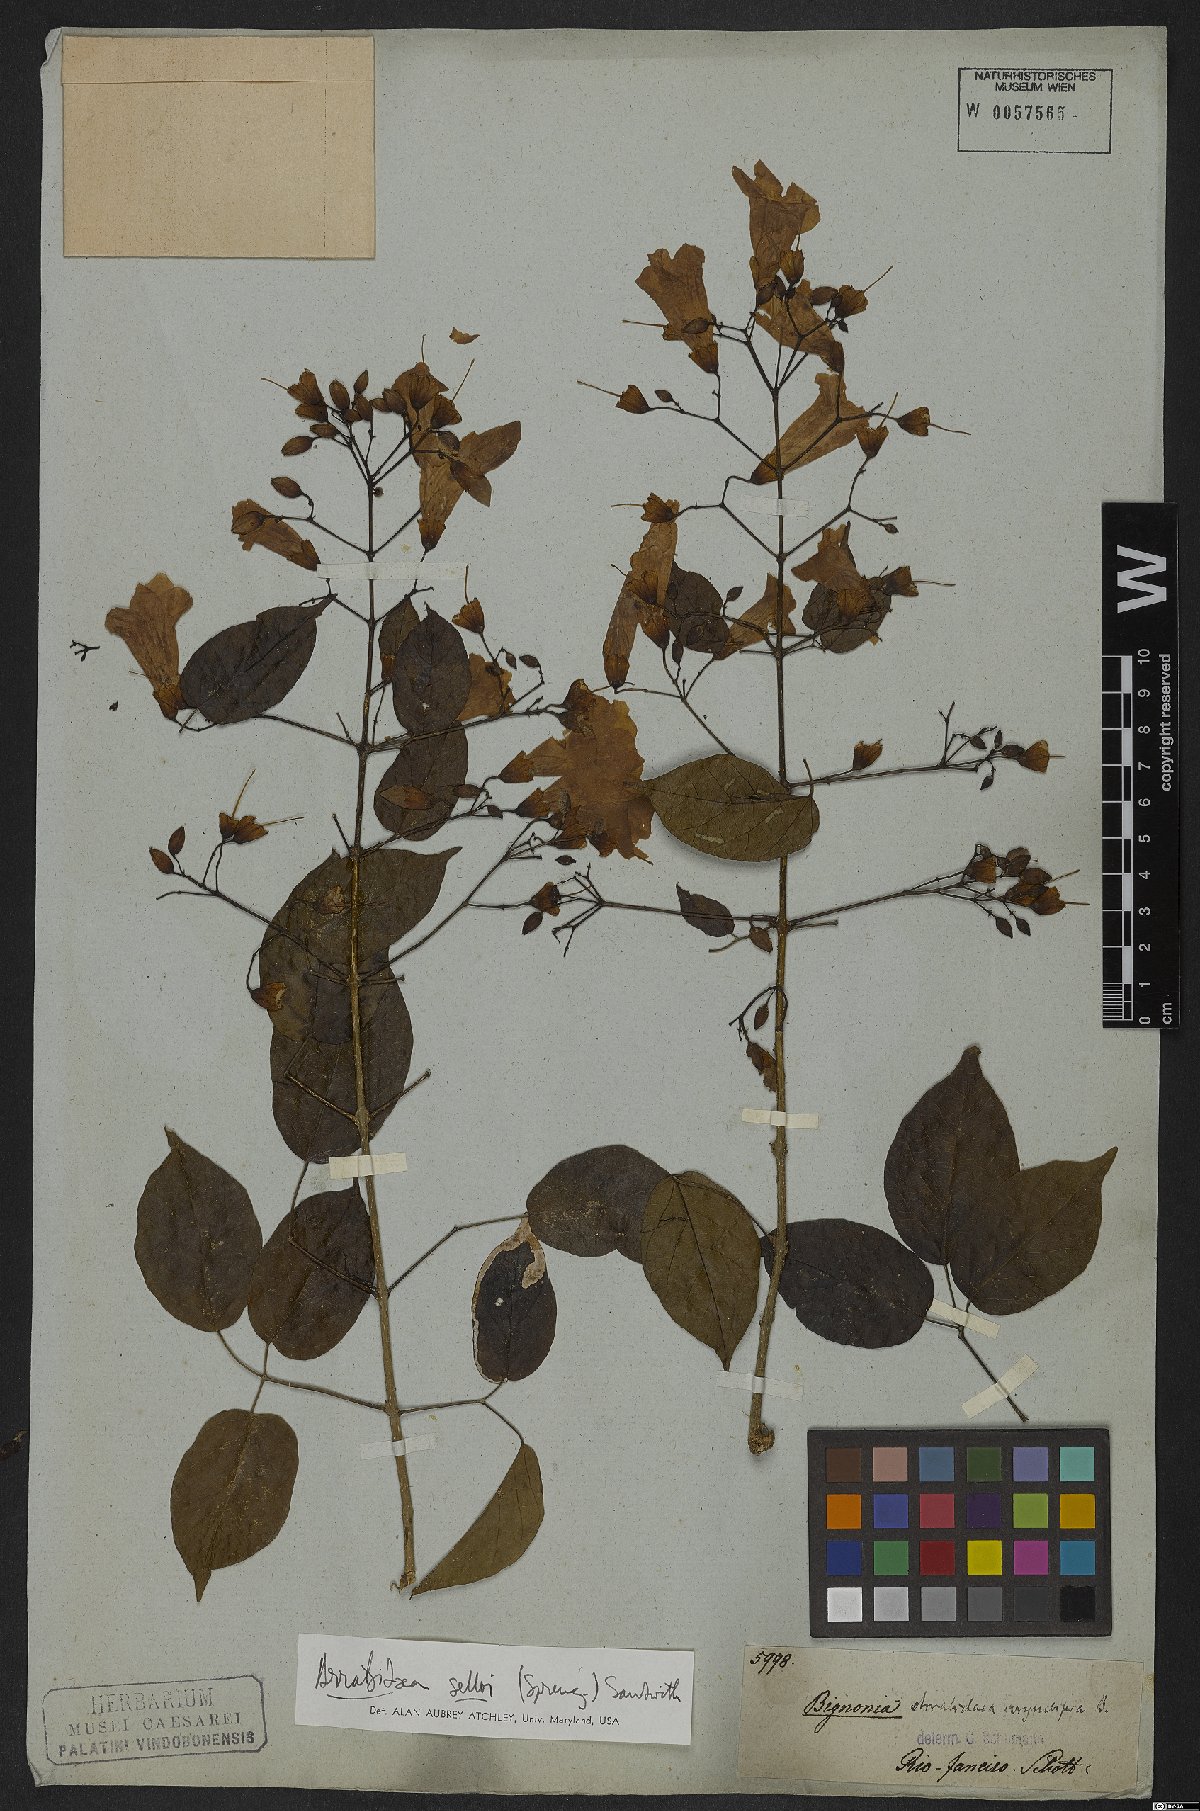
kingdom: Plantae
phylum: Tracheophyta
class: Magnoliopsida
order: Lamiales
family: Bignoniaceae
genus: Tanaecium
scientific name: Tanaecium selloi
